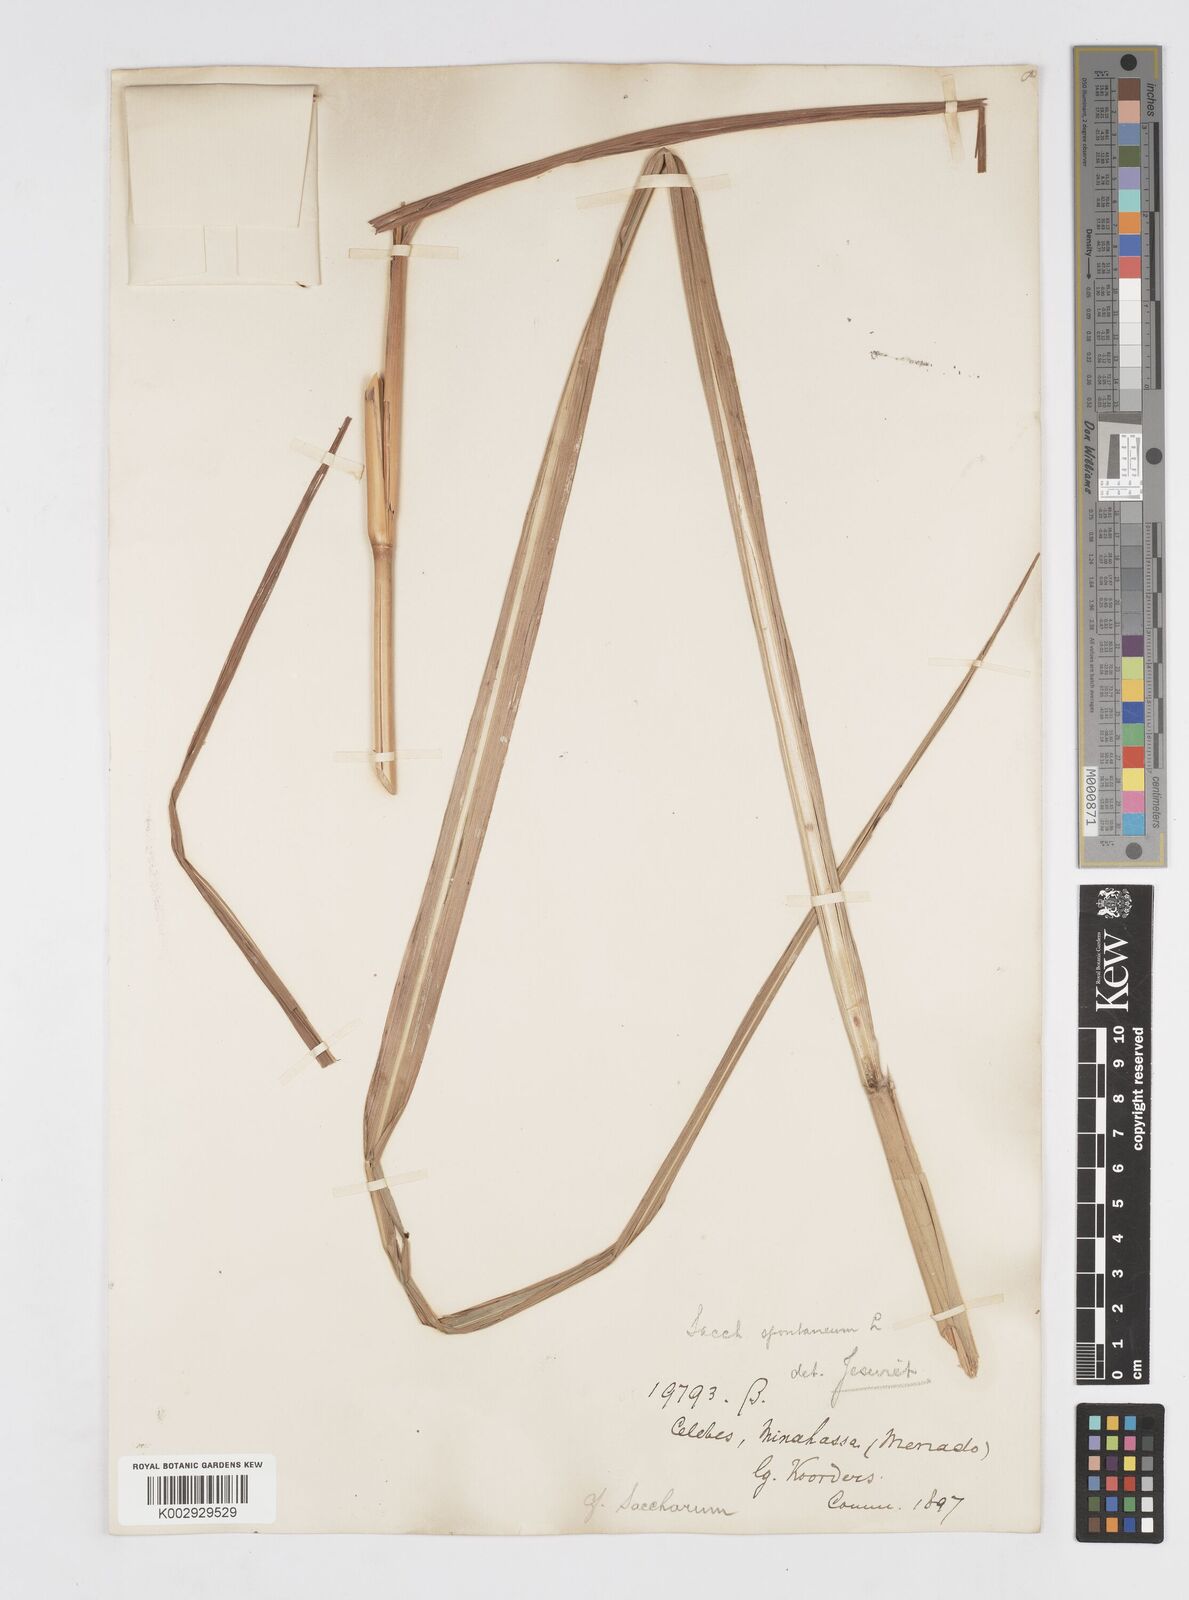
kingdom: Plantae
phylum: Tracheophyta
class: Liliopsida
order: Poales
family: Poaceae
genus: Saccharum
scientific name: Saccharum spontaneum
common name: Wild sugarcane
